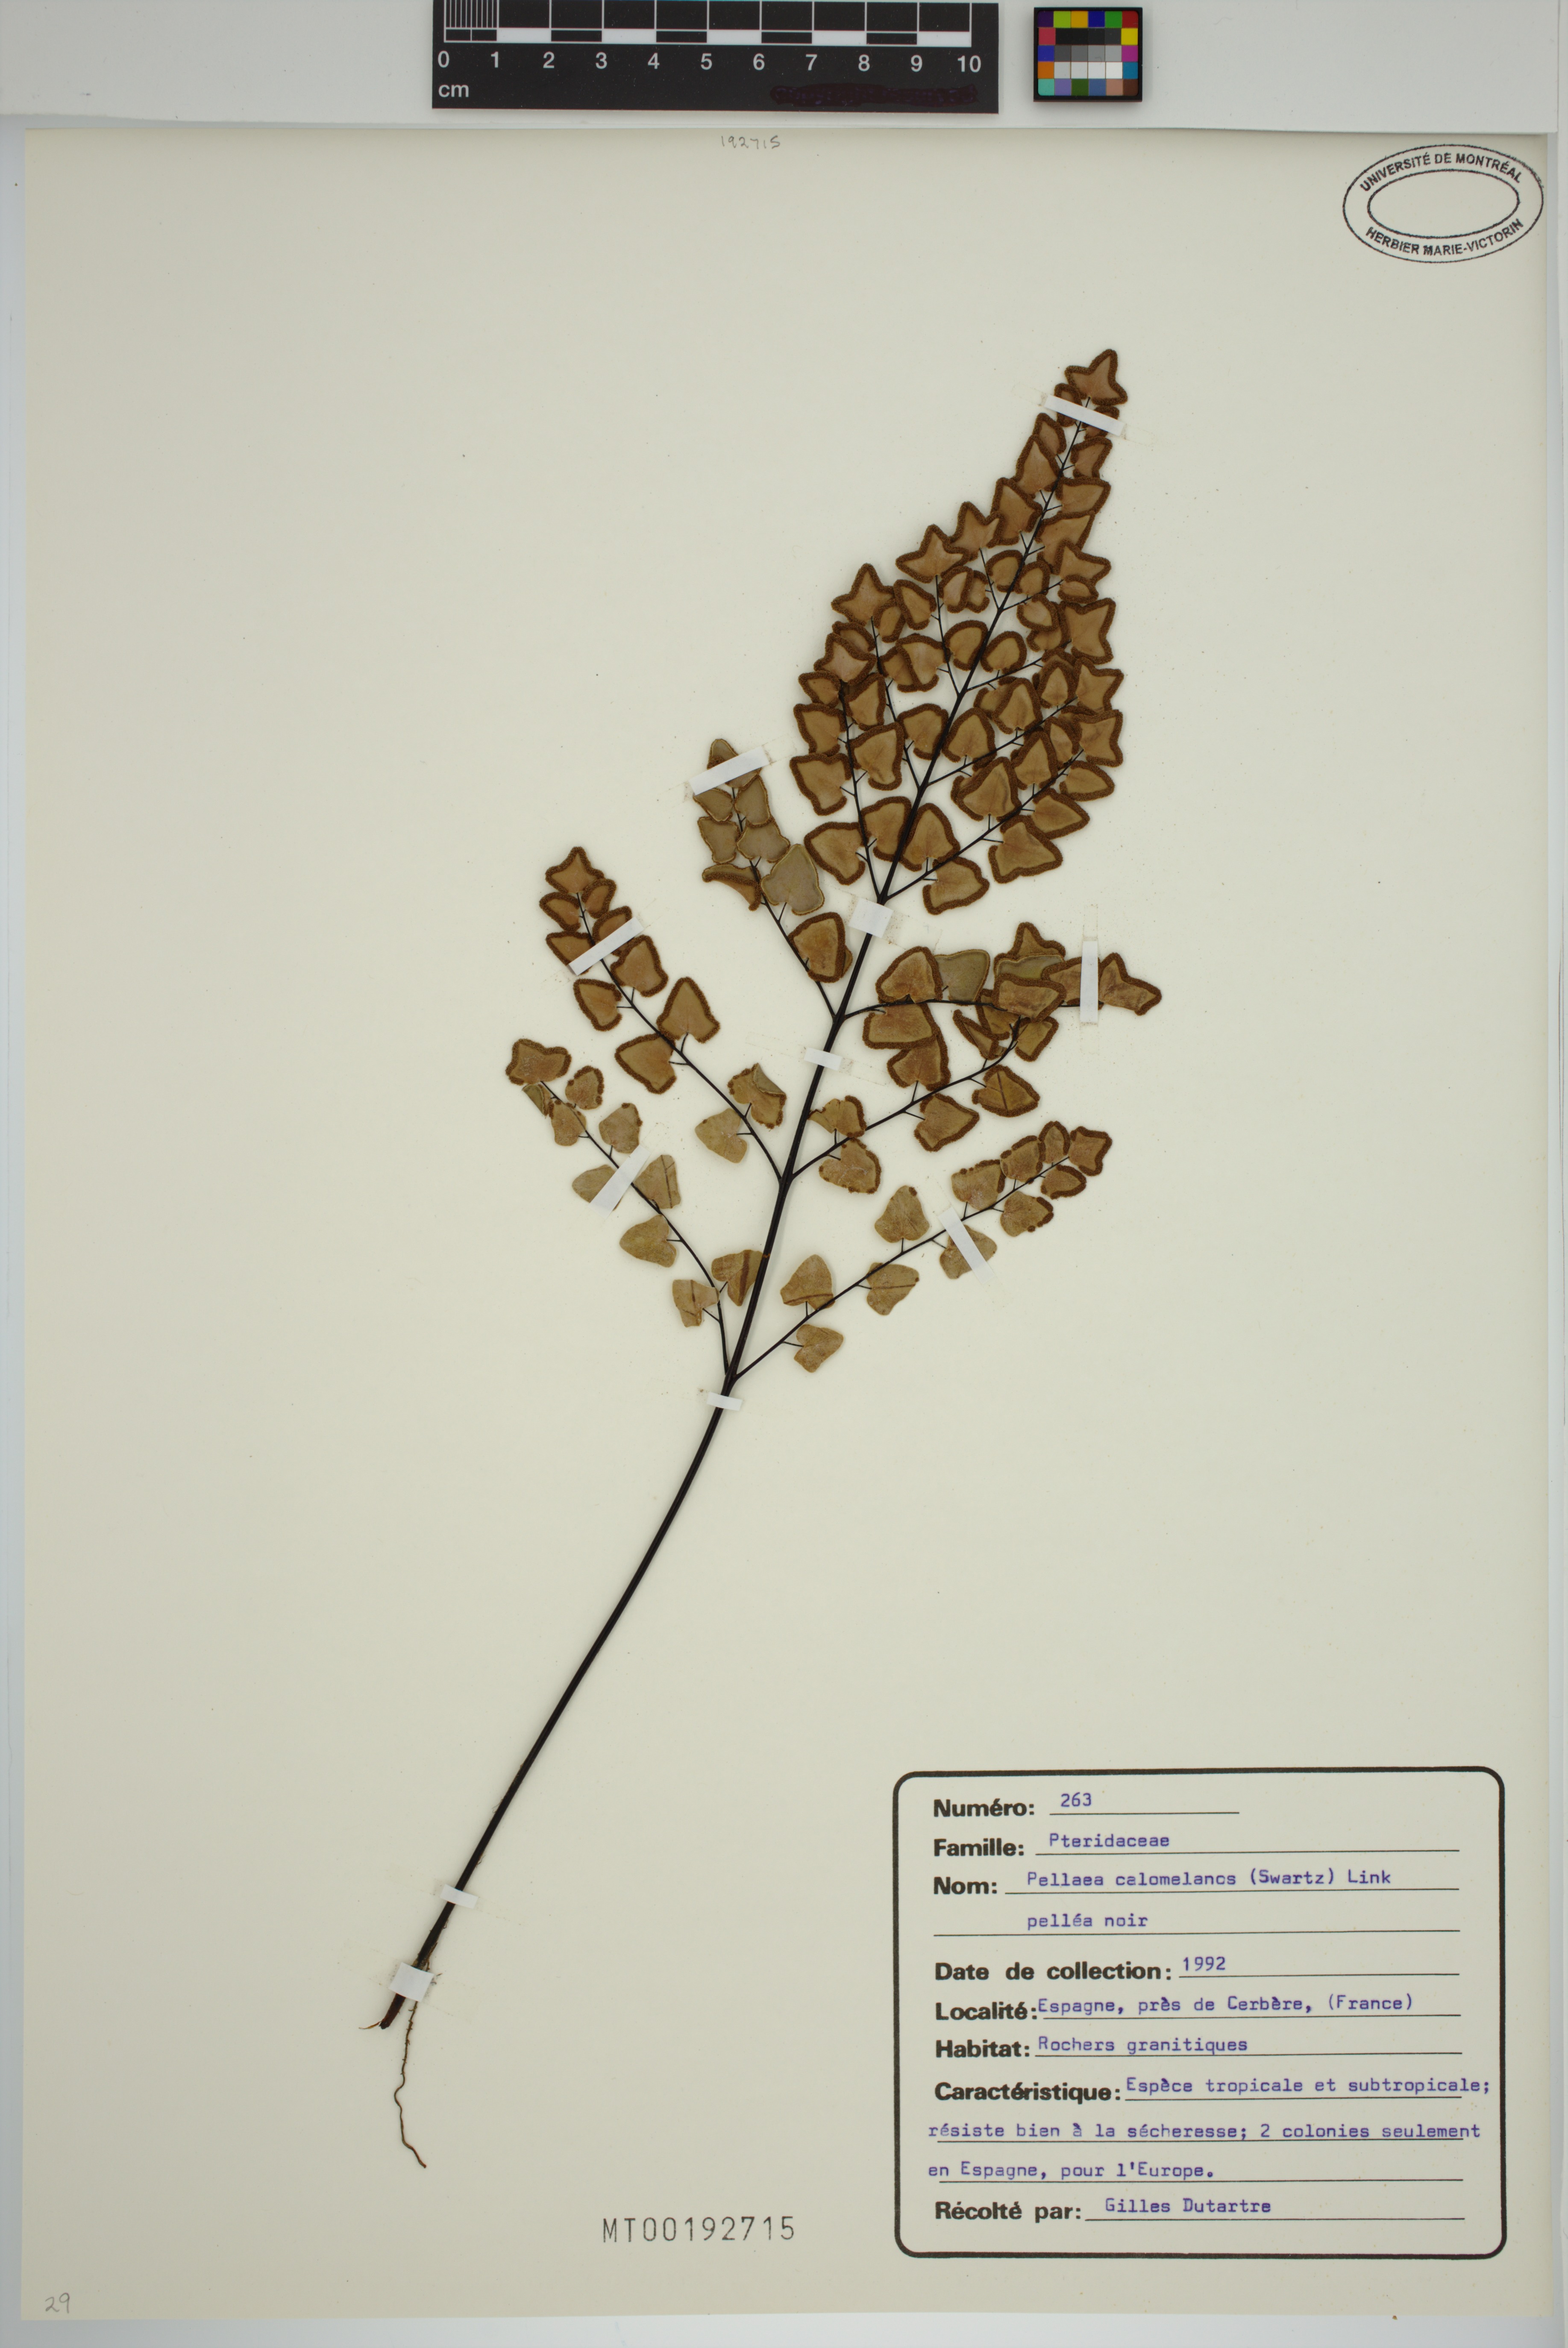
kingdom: Plantae
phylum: Tracheophyta
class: Polypodiopsida
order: Polypodiales
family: Pteridaceae
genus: Pellaea
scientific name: Pellaea calomelanos
